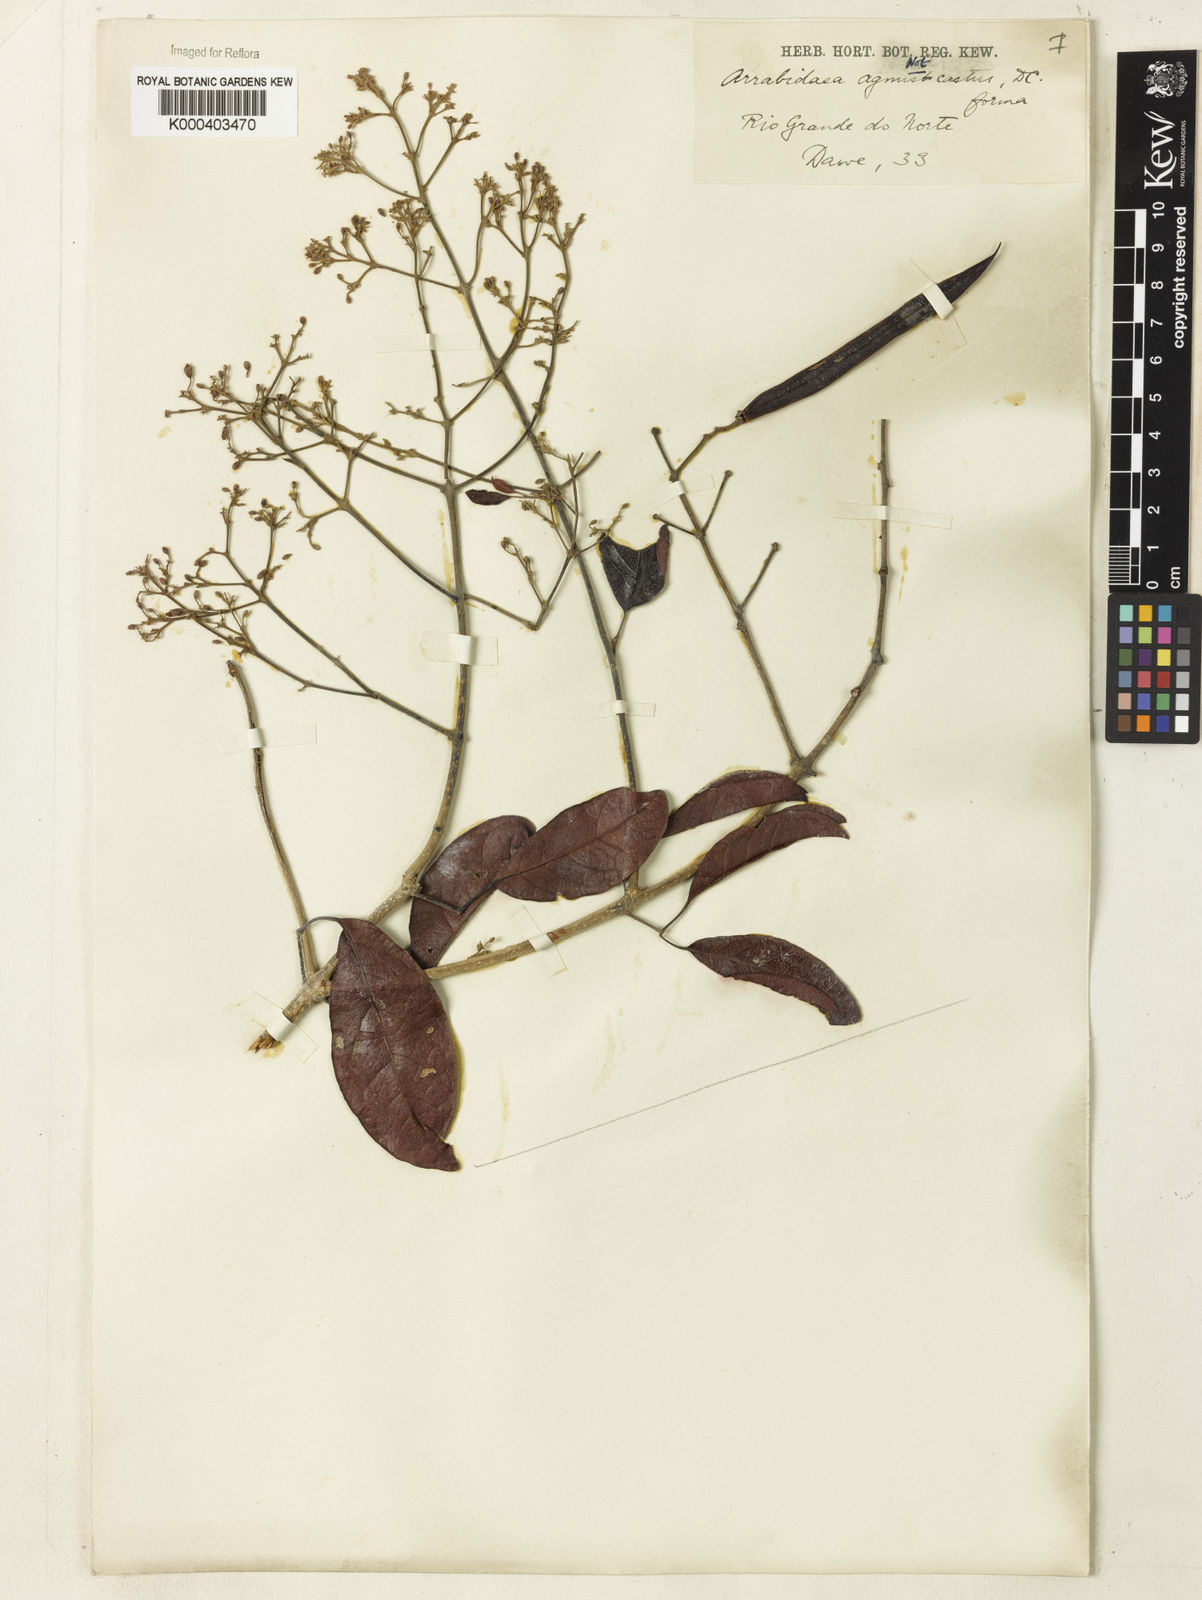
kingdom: Plantae
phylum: Tracheophyta
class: Magnoliopsida
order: Rosales
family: Rhamnaceae
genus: Arrabidaea
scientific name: Arrabidaea
